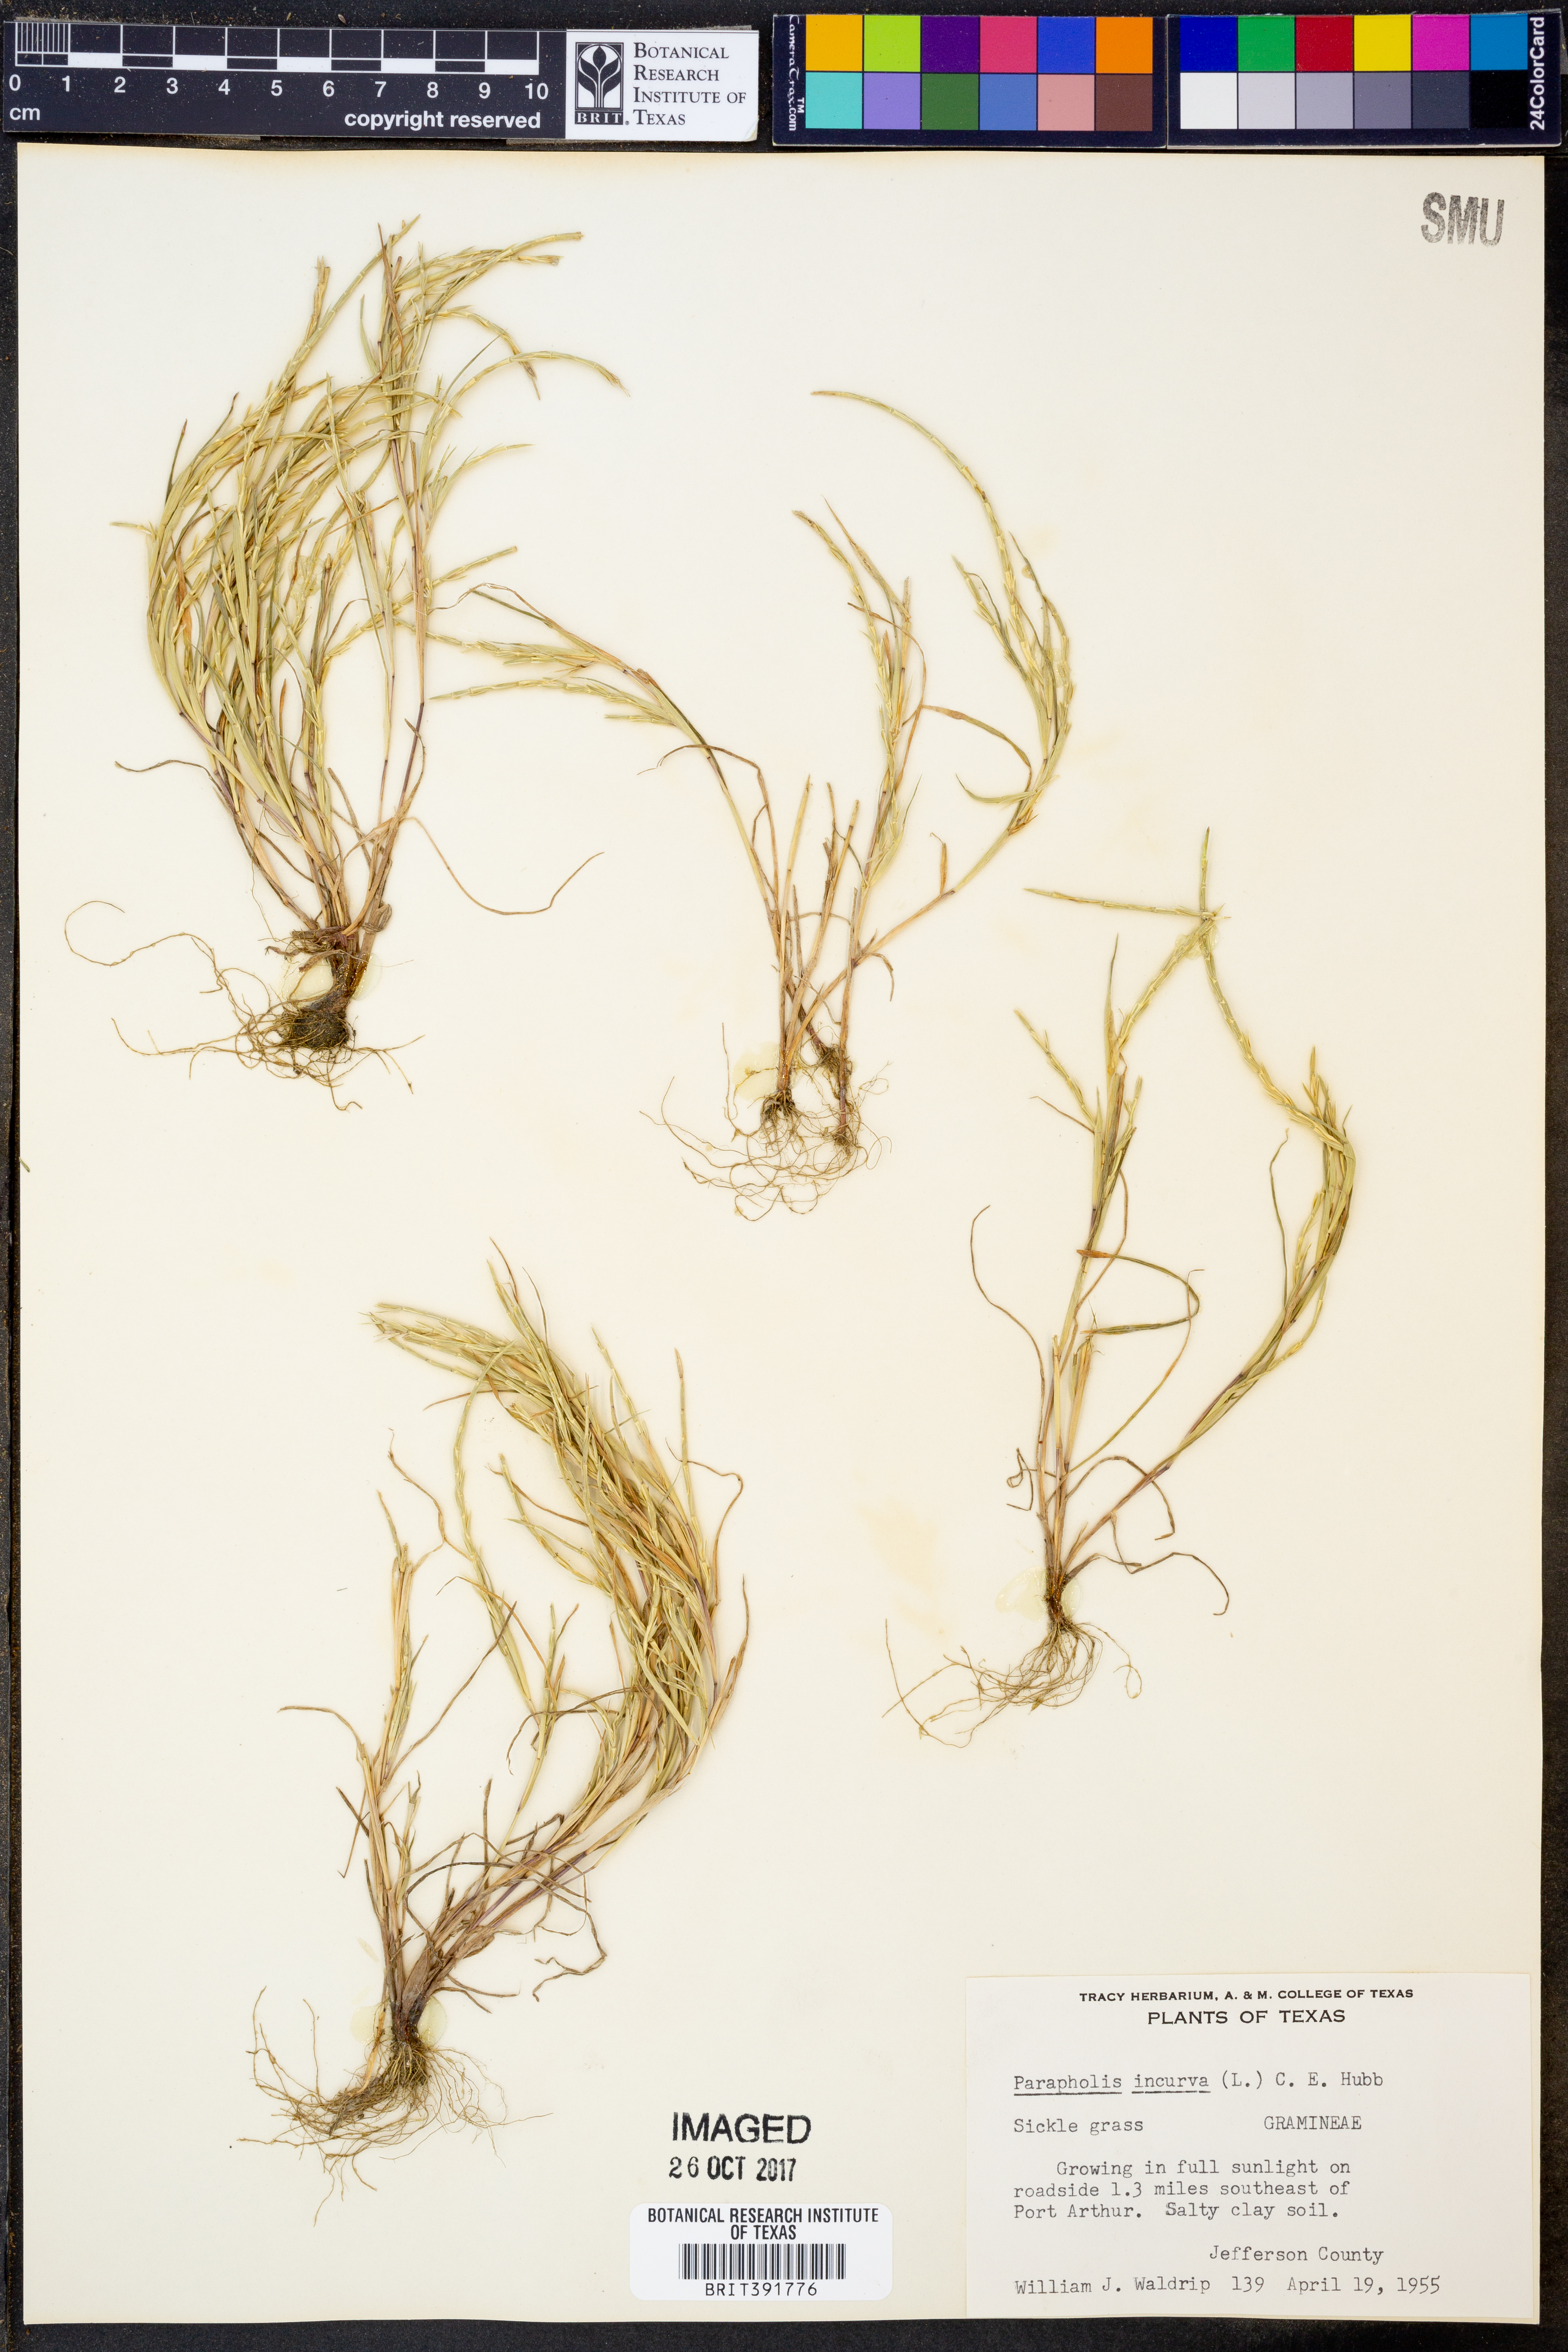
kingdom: Plantae
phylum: Tracheophyta
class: Liliopsida
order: Poales
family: Poaceae
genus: Parapholis
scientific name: Parapholis incurva
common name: Curved sicklegrass
